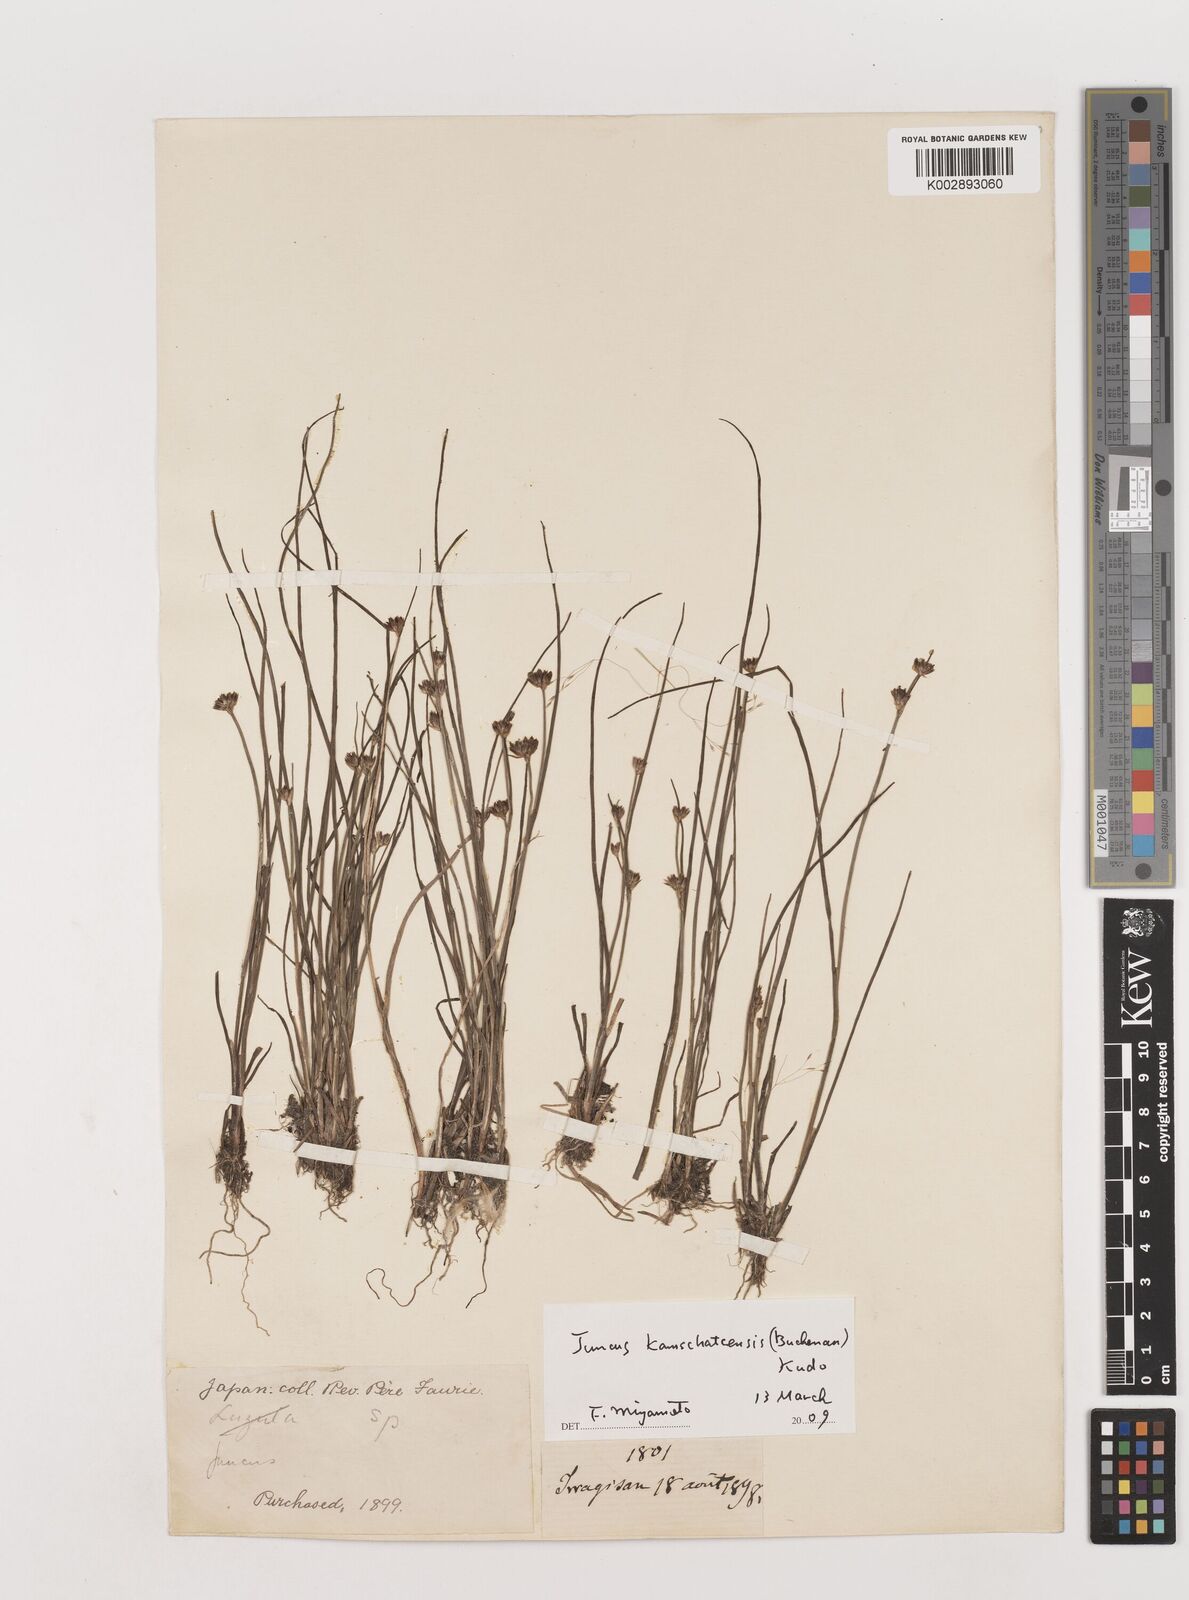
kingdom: Plantae
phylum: Tracheophyta
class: Liliopsida
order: Poales
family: Juncaceae
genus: Juncus
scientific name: Juncus fauriensis
